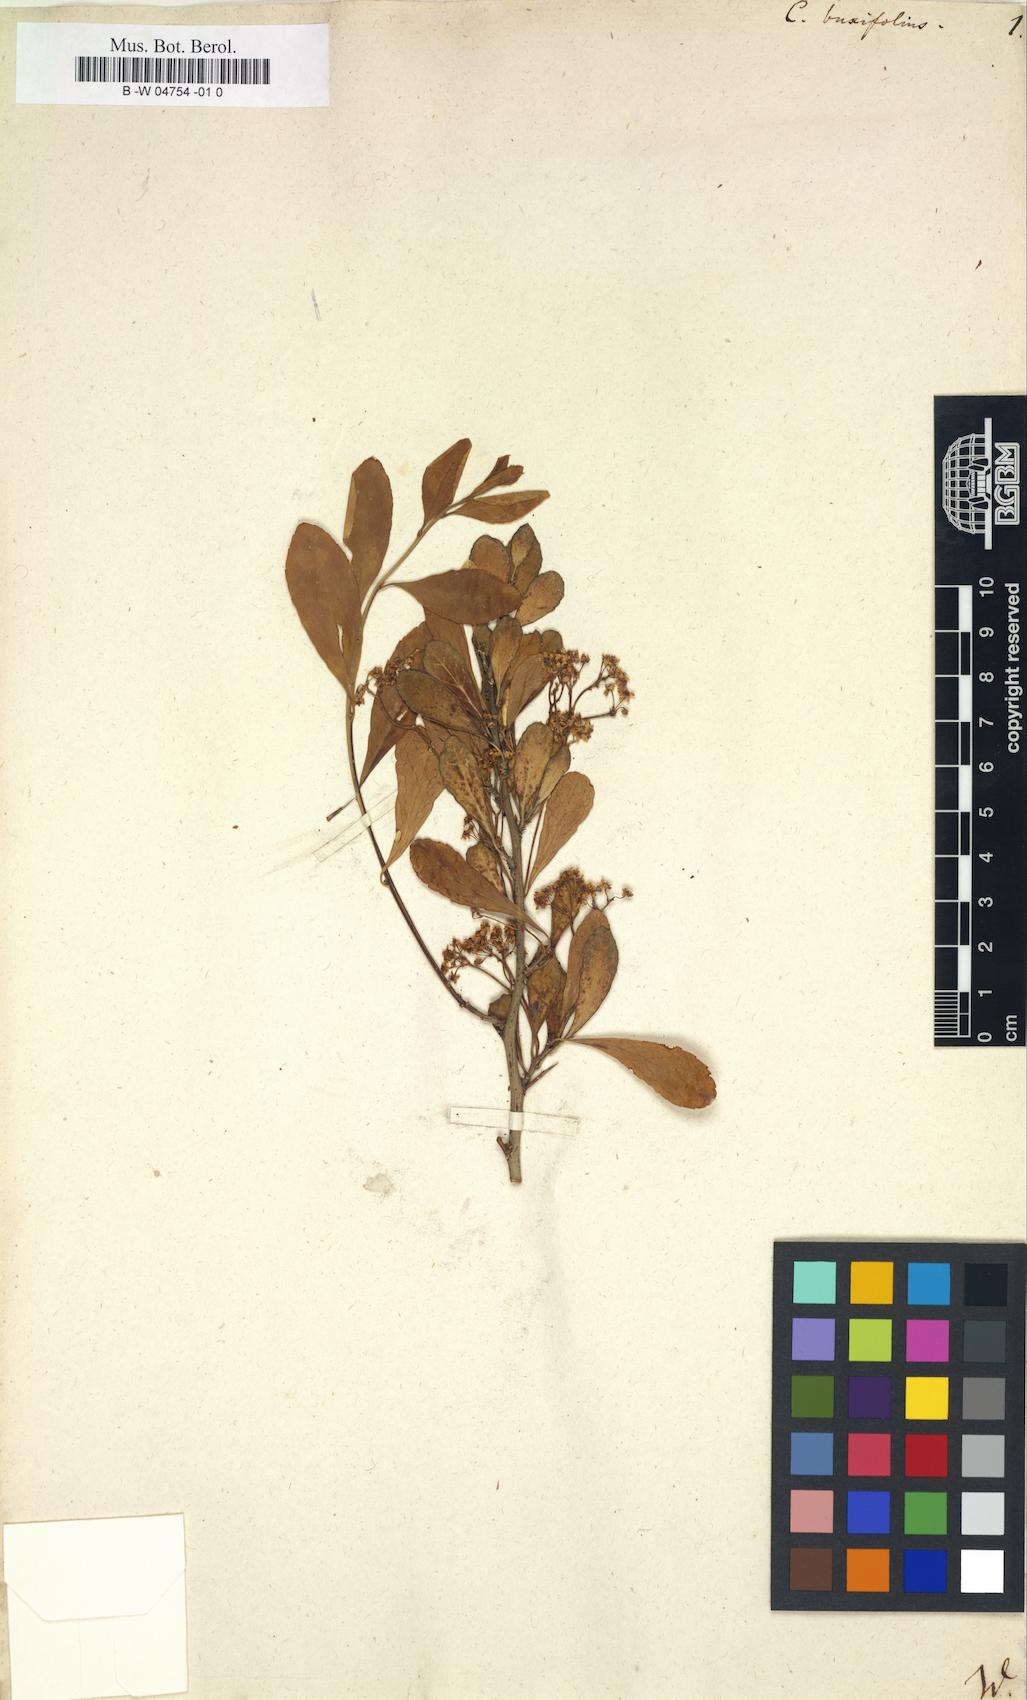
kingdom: Plantae
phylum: Tracheophyta
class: Magnoliopsida
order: Celastrales
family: Celastraceae
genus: Gymnosporia
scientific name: Gymnosporia
